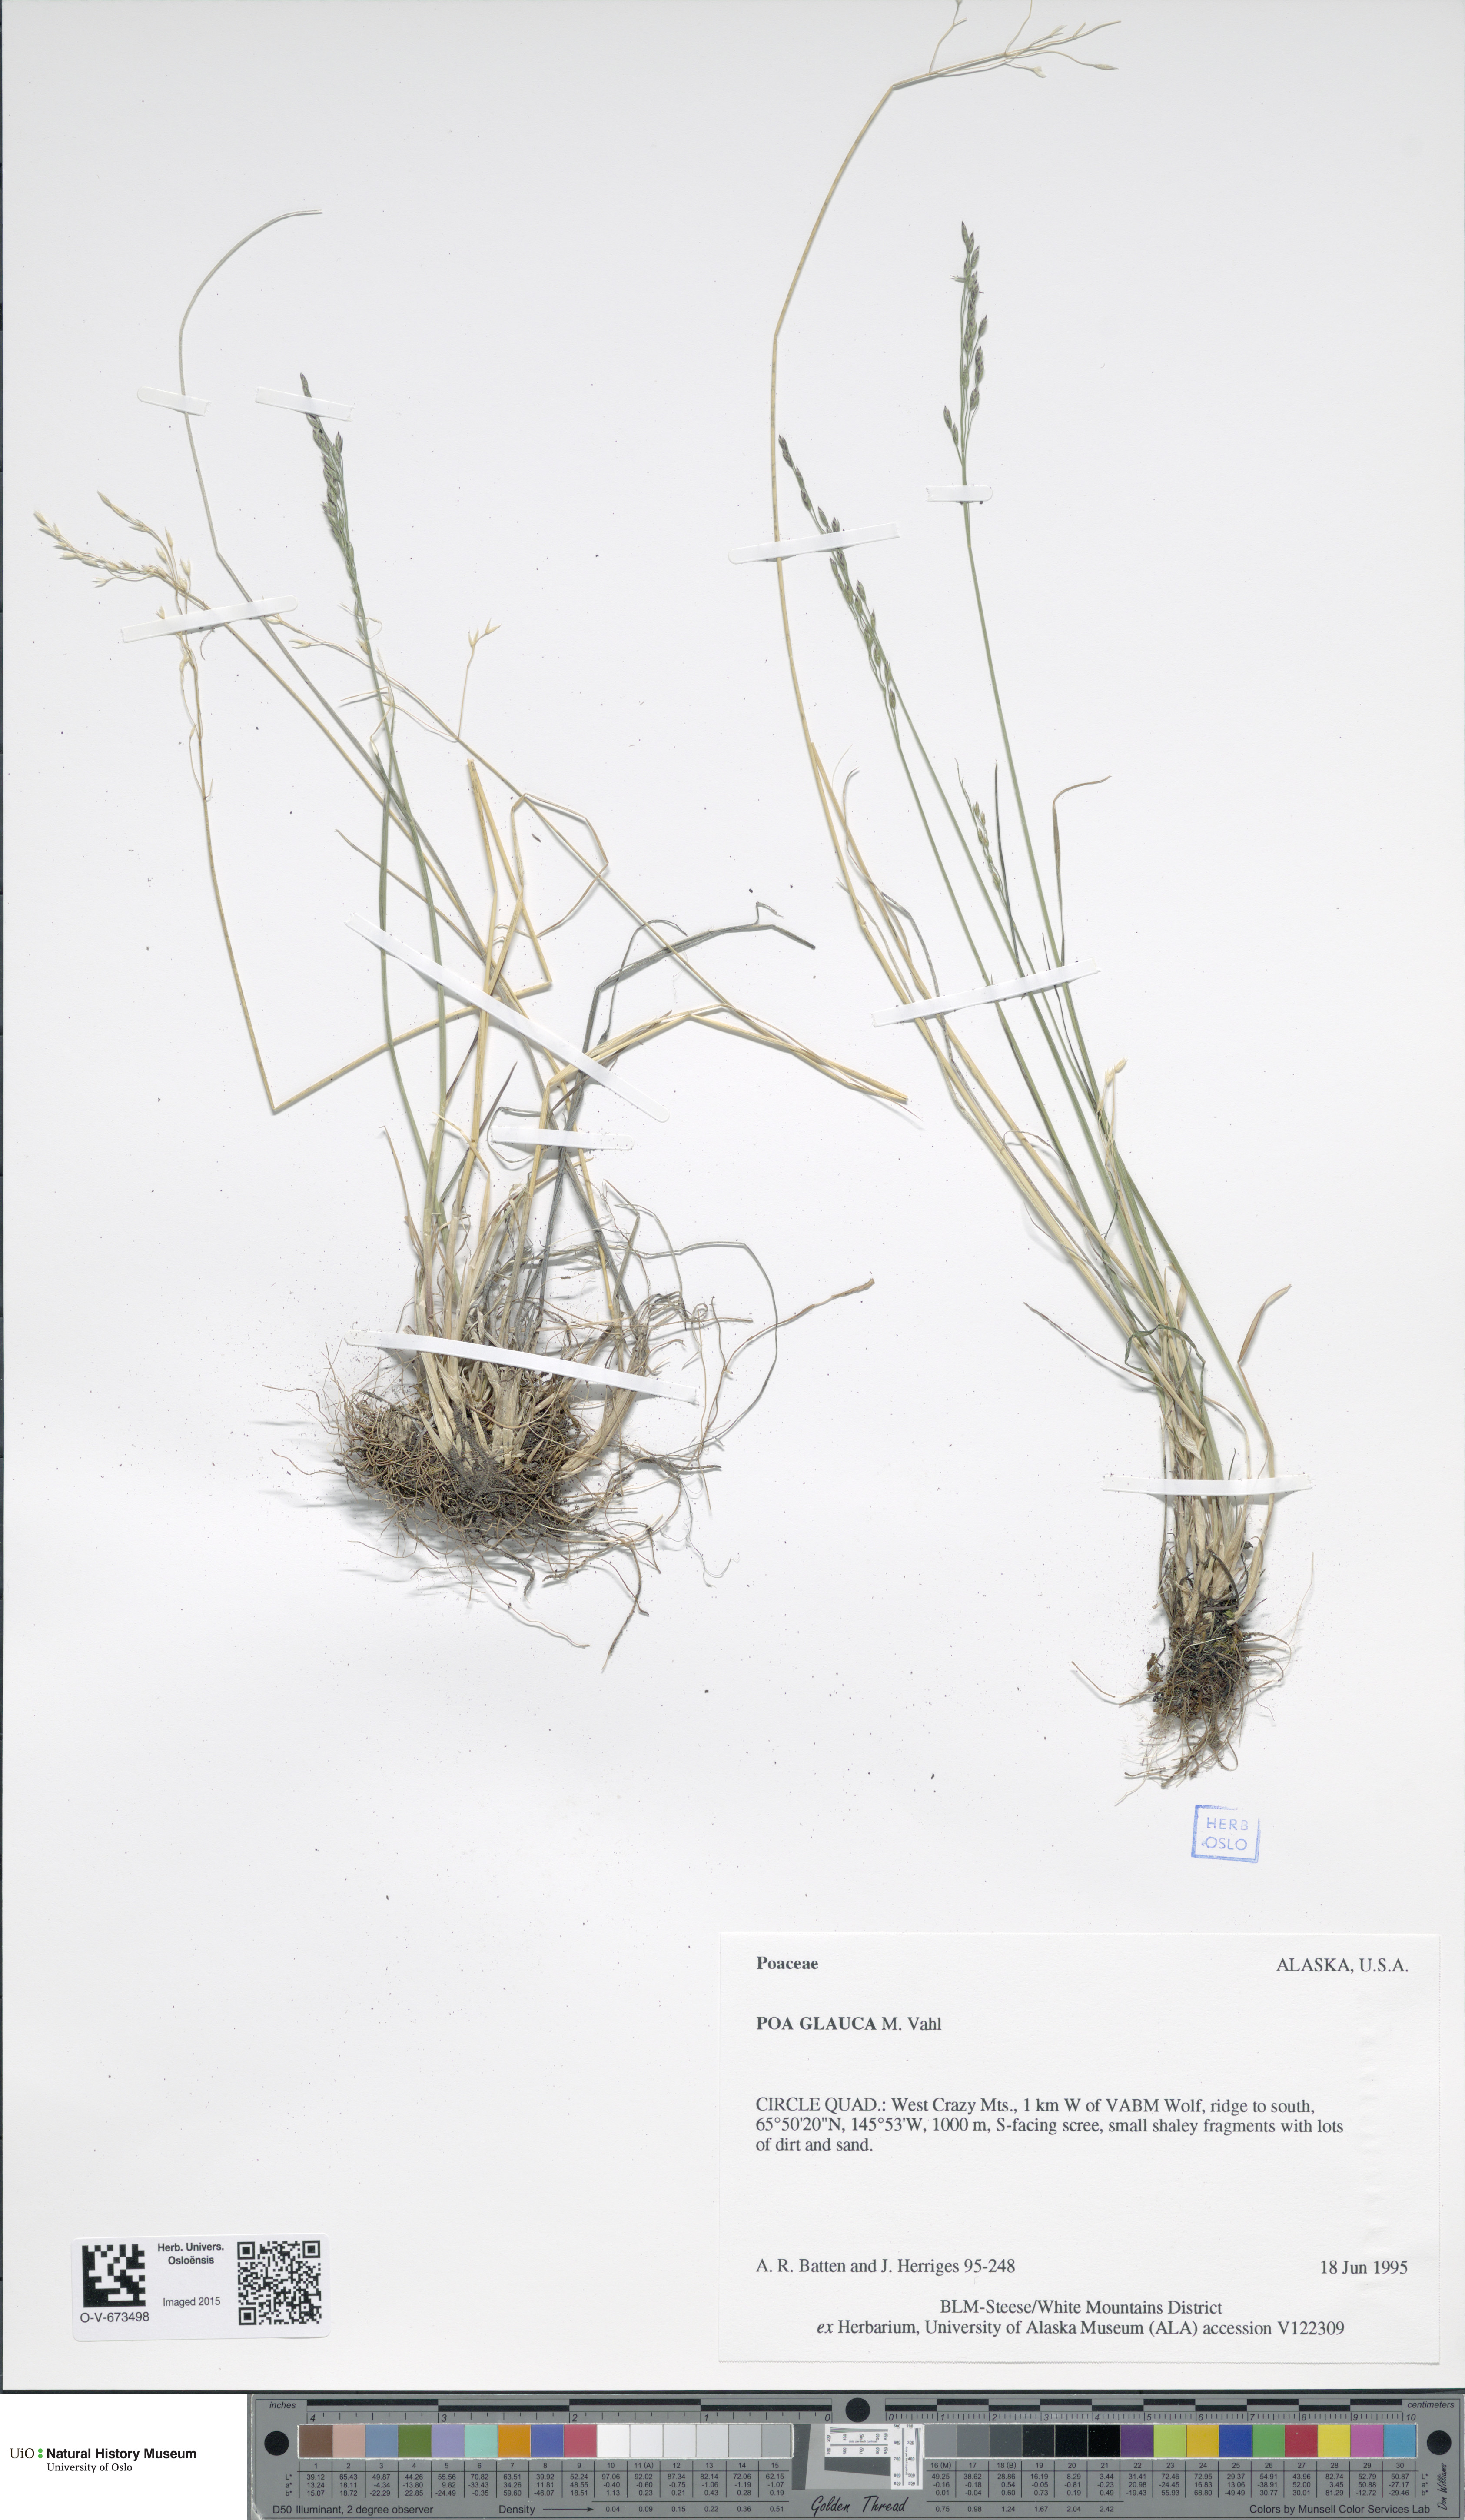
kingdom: Plantae
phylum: Tracheophyta
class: Liliopsida
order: Poales
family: Poaceae
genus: Poa
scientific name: Poa glauca
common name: Glaucous bluegrass
